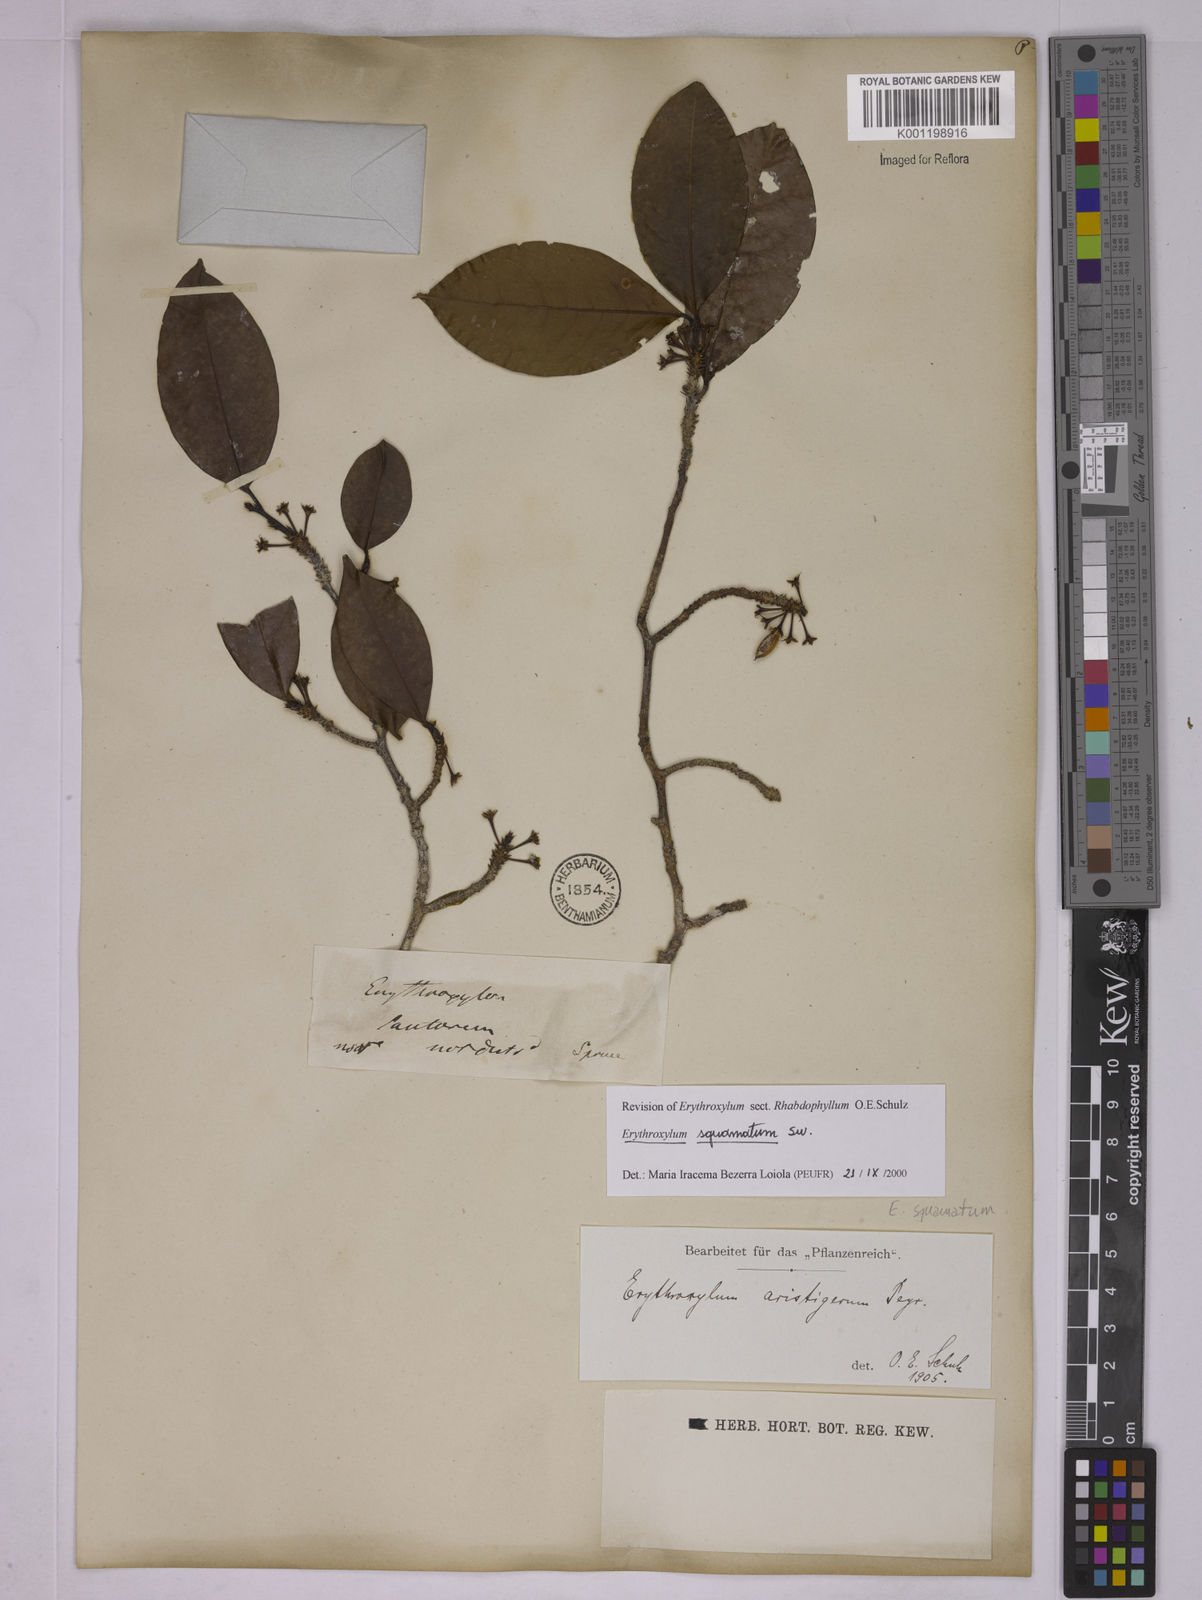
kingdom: Plantae
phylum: Tracheophyta
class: Magnoliopsida
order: Malpighiales
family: Erythroxylaceae
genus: Erythroxylum
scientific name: Erythroxylum squamatum
